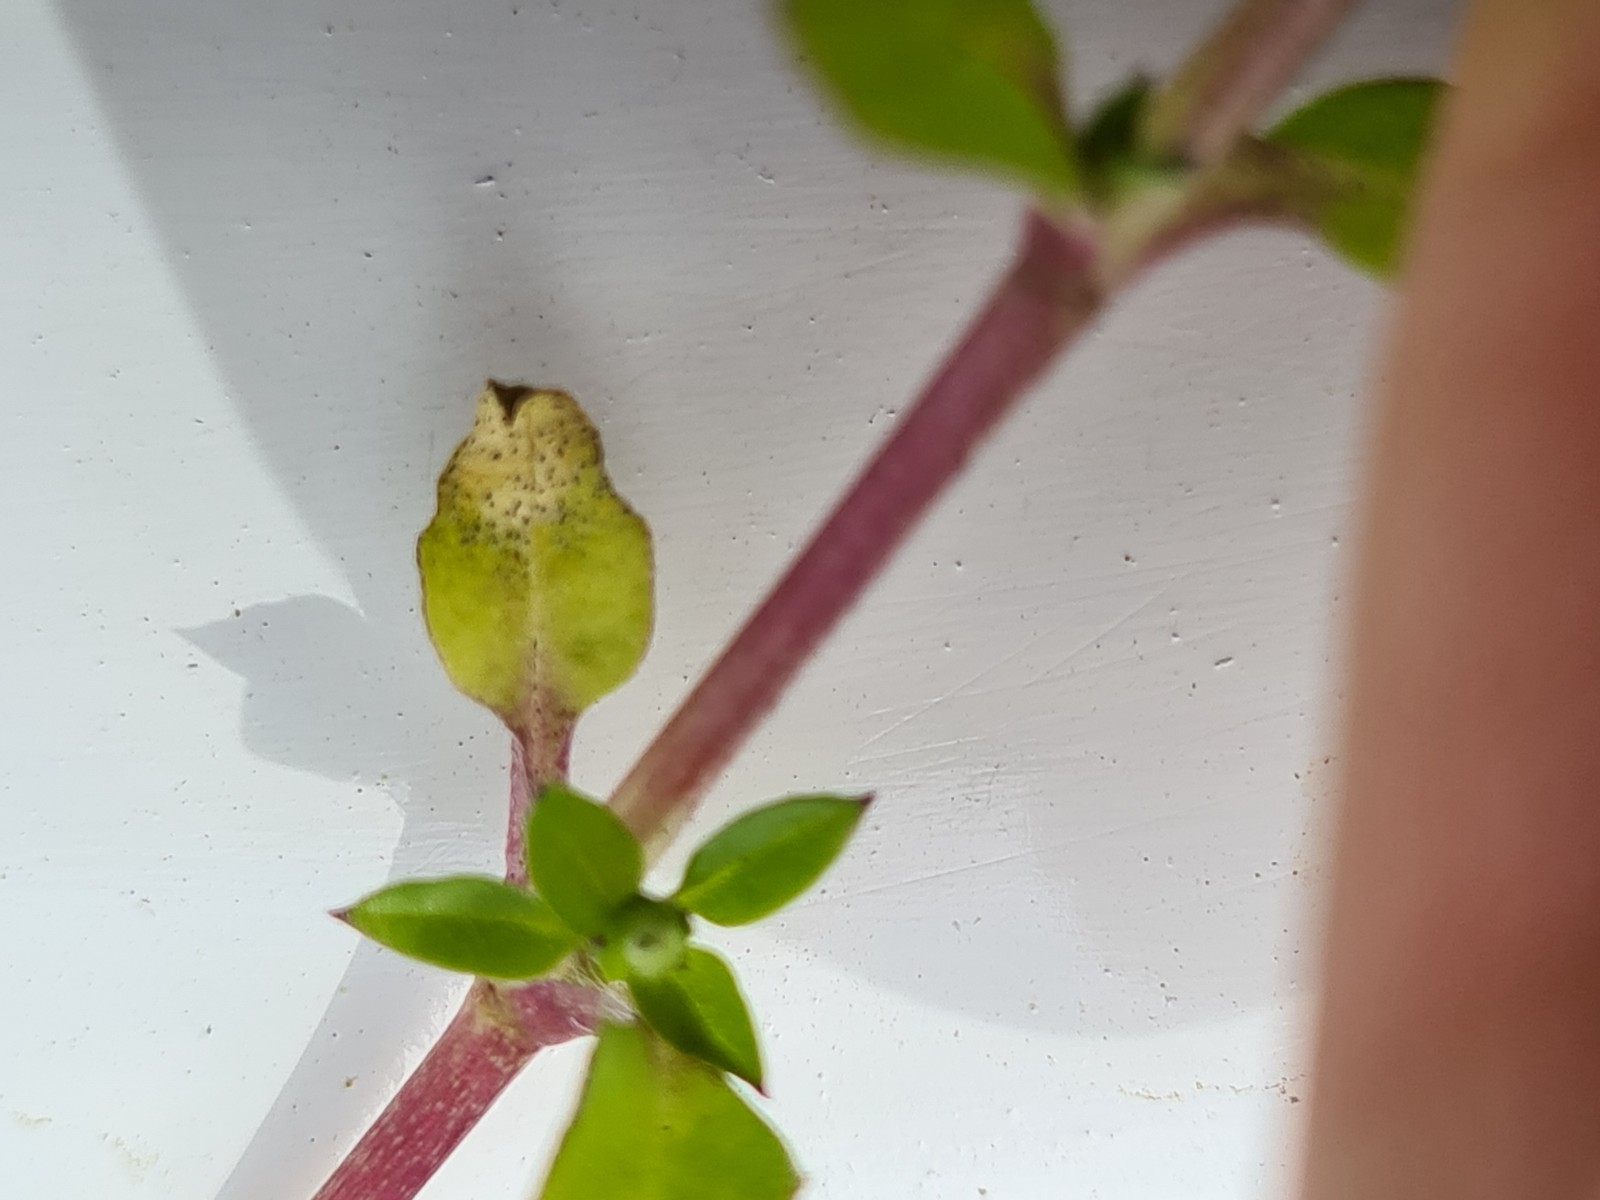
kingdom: Fungi
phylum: Ascomycota
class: Dothideomycetes
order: Mycosphaerellales
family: Mycosphaerellaceae
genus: Septoria
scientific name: Septoria stellariae
